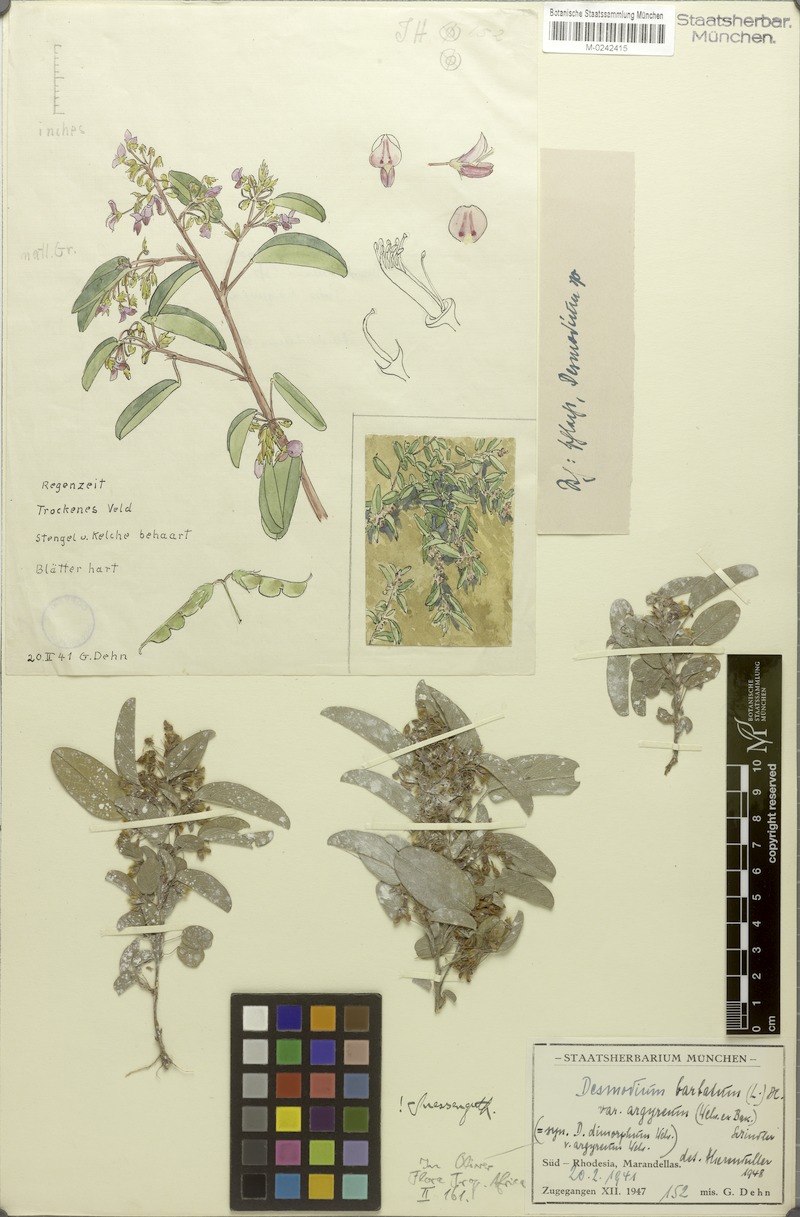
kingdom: Plantae
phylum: Tracheophyta
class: Magnoliopsida
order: Fabales
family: Fabaceae
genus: Grona
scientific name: Grona barbata
